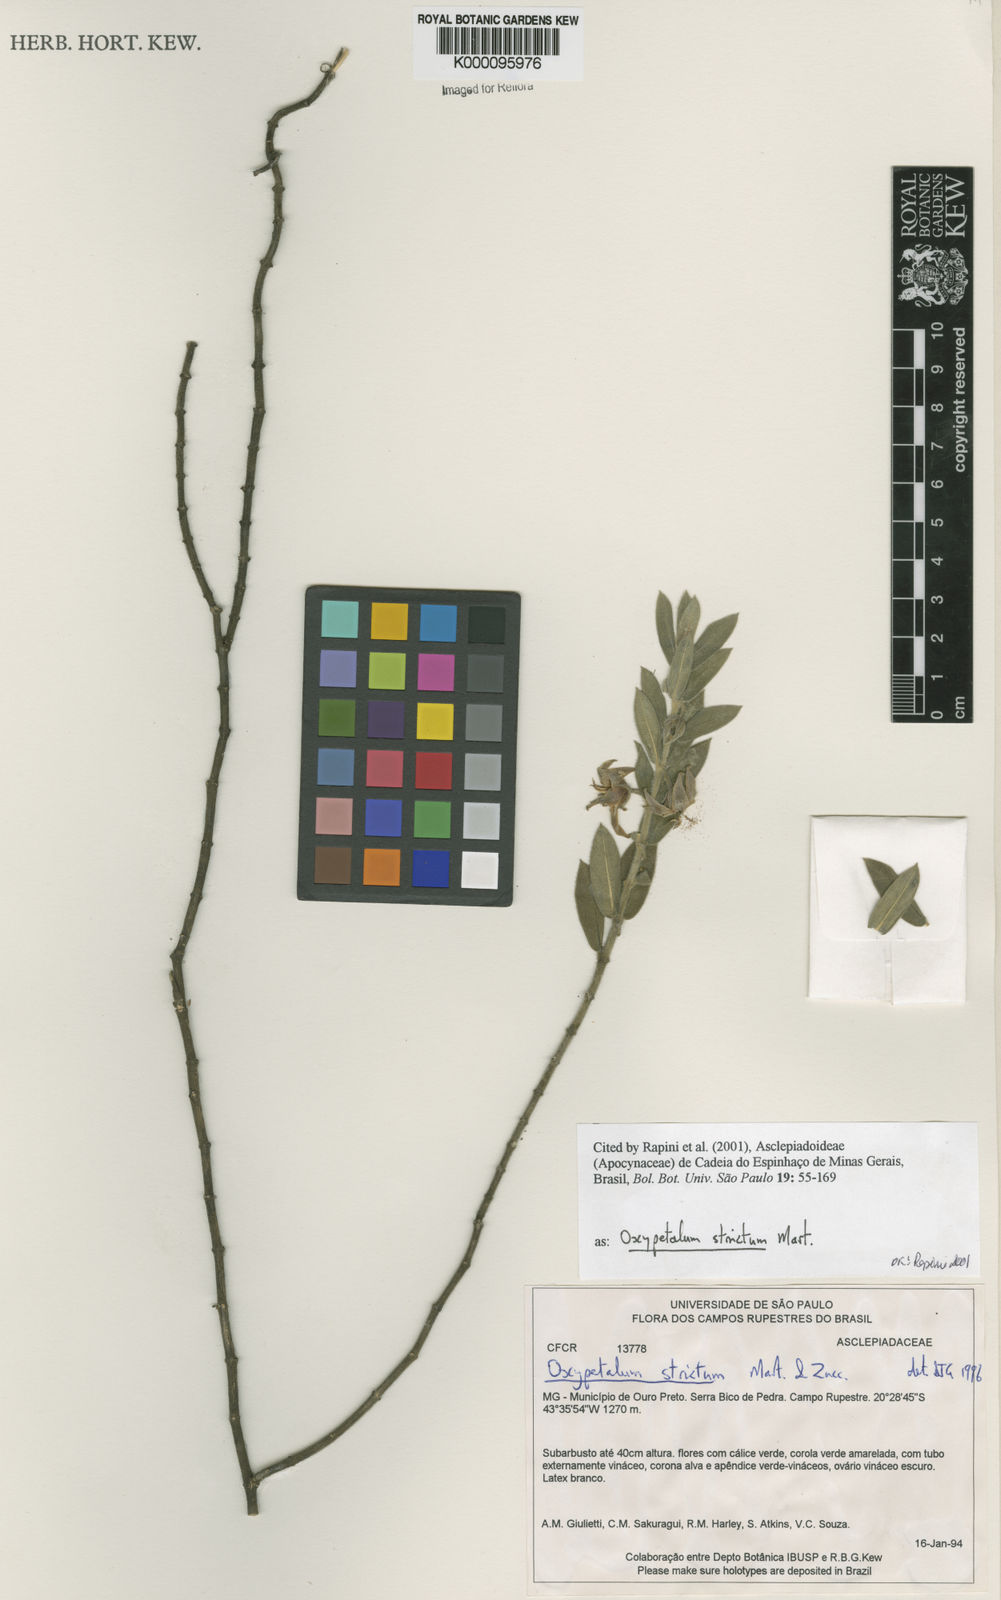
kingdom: Plantae
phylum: Tracheophyta
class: Magnoliopsida
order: Gentianales
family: Apocynaceae
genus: Oxypetalum
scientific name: Oxypetalum strictum
